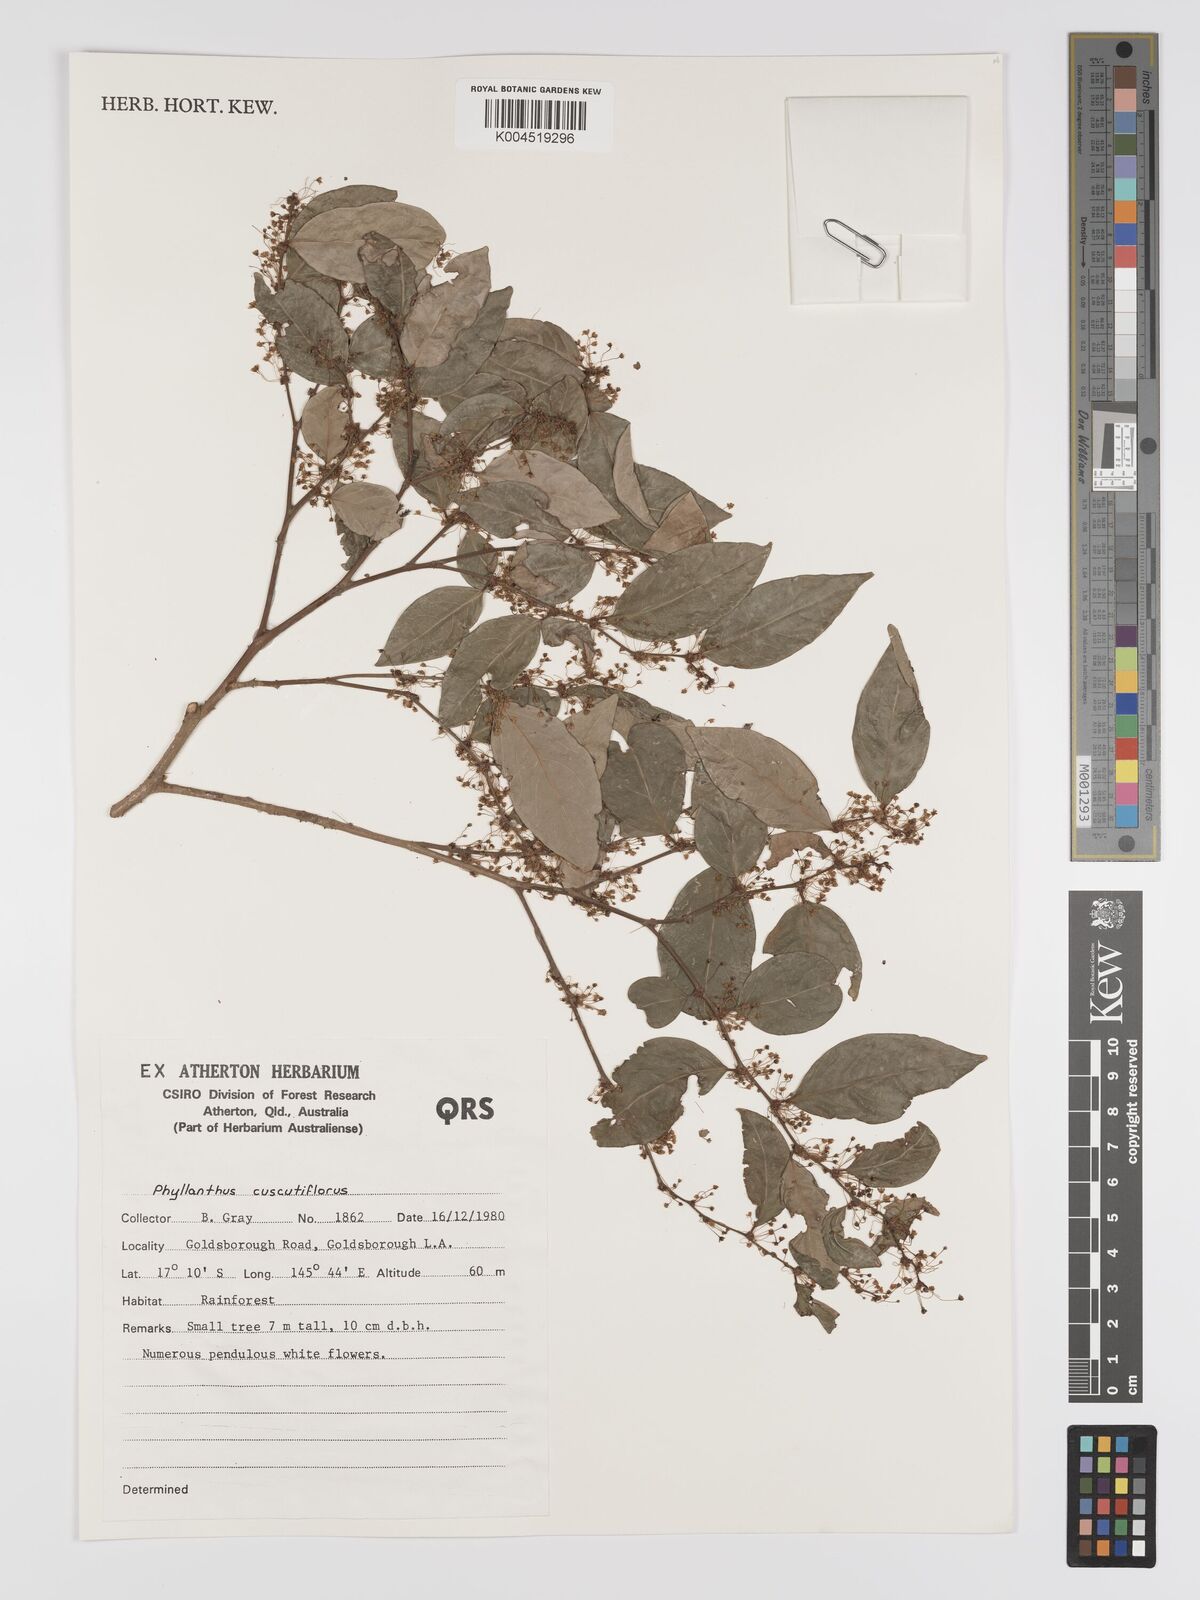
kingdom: Plantae
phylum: Tracheophyta
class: Magnoliopsida
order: Malpighiales
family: Phyllanthaceae
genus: Phyllanthus
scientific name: Phyllanthus cuscutiflorus
